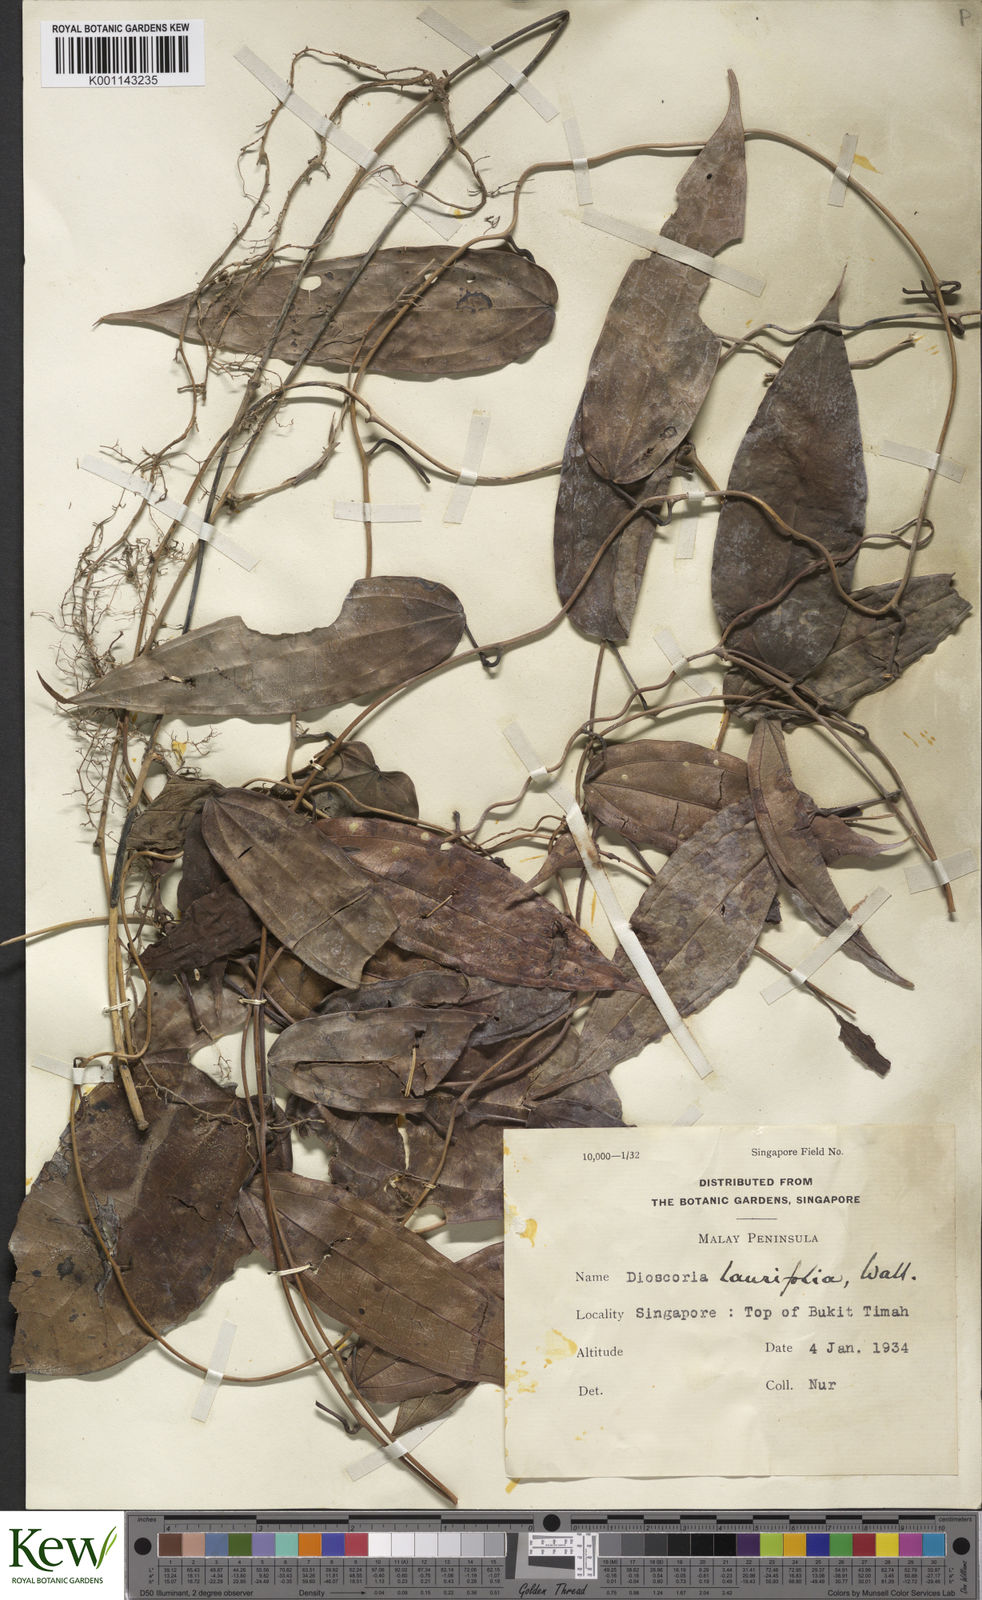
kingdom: Plantae
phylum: Tracheophyta
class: Liliopsida
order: Dioscoreales
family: Dioscoreaceae
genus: Dioscorea
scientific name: Dioscorea laurifolia
